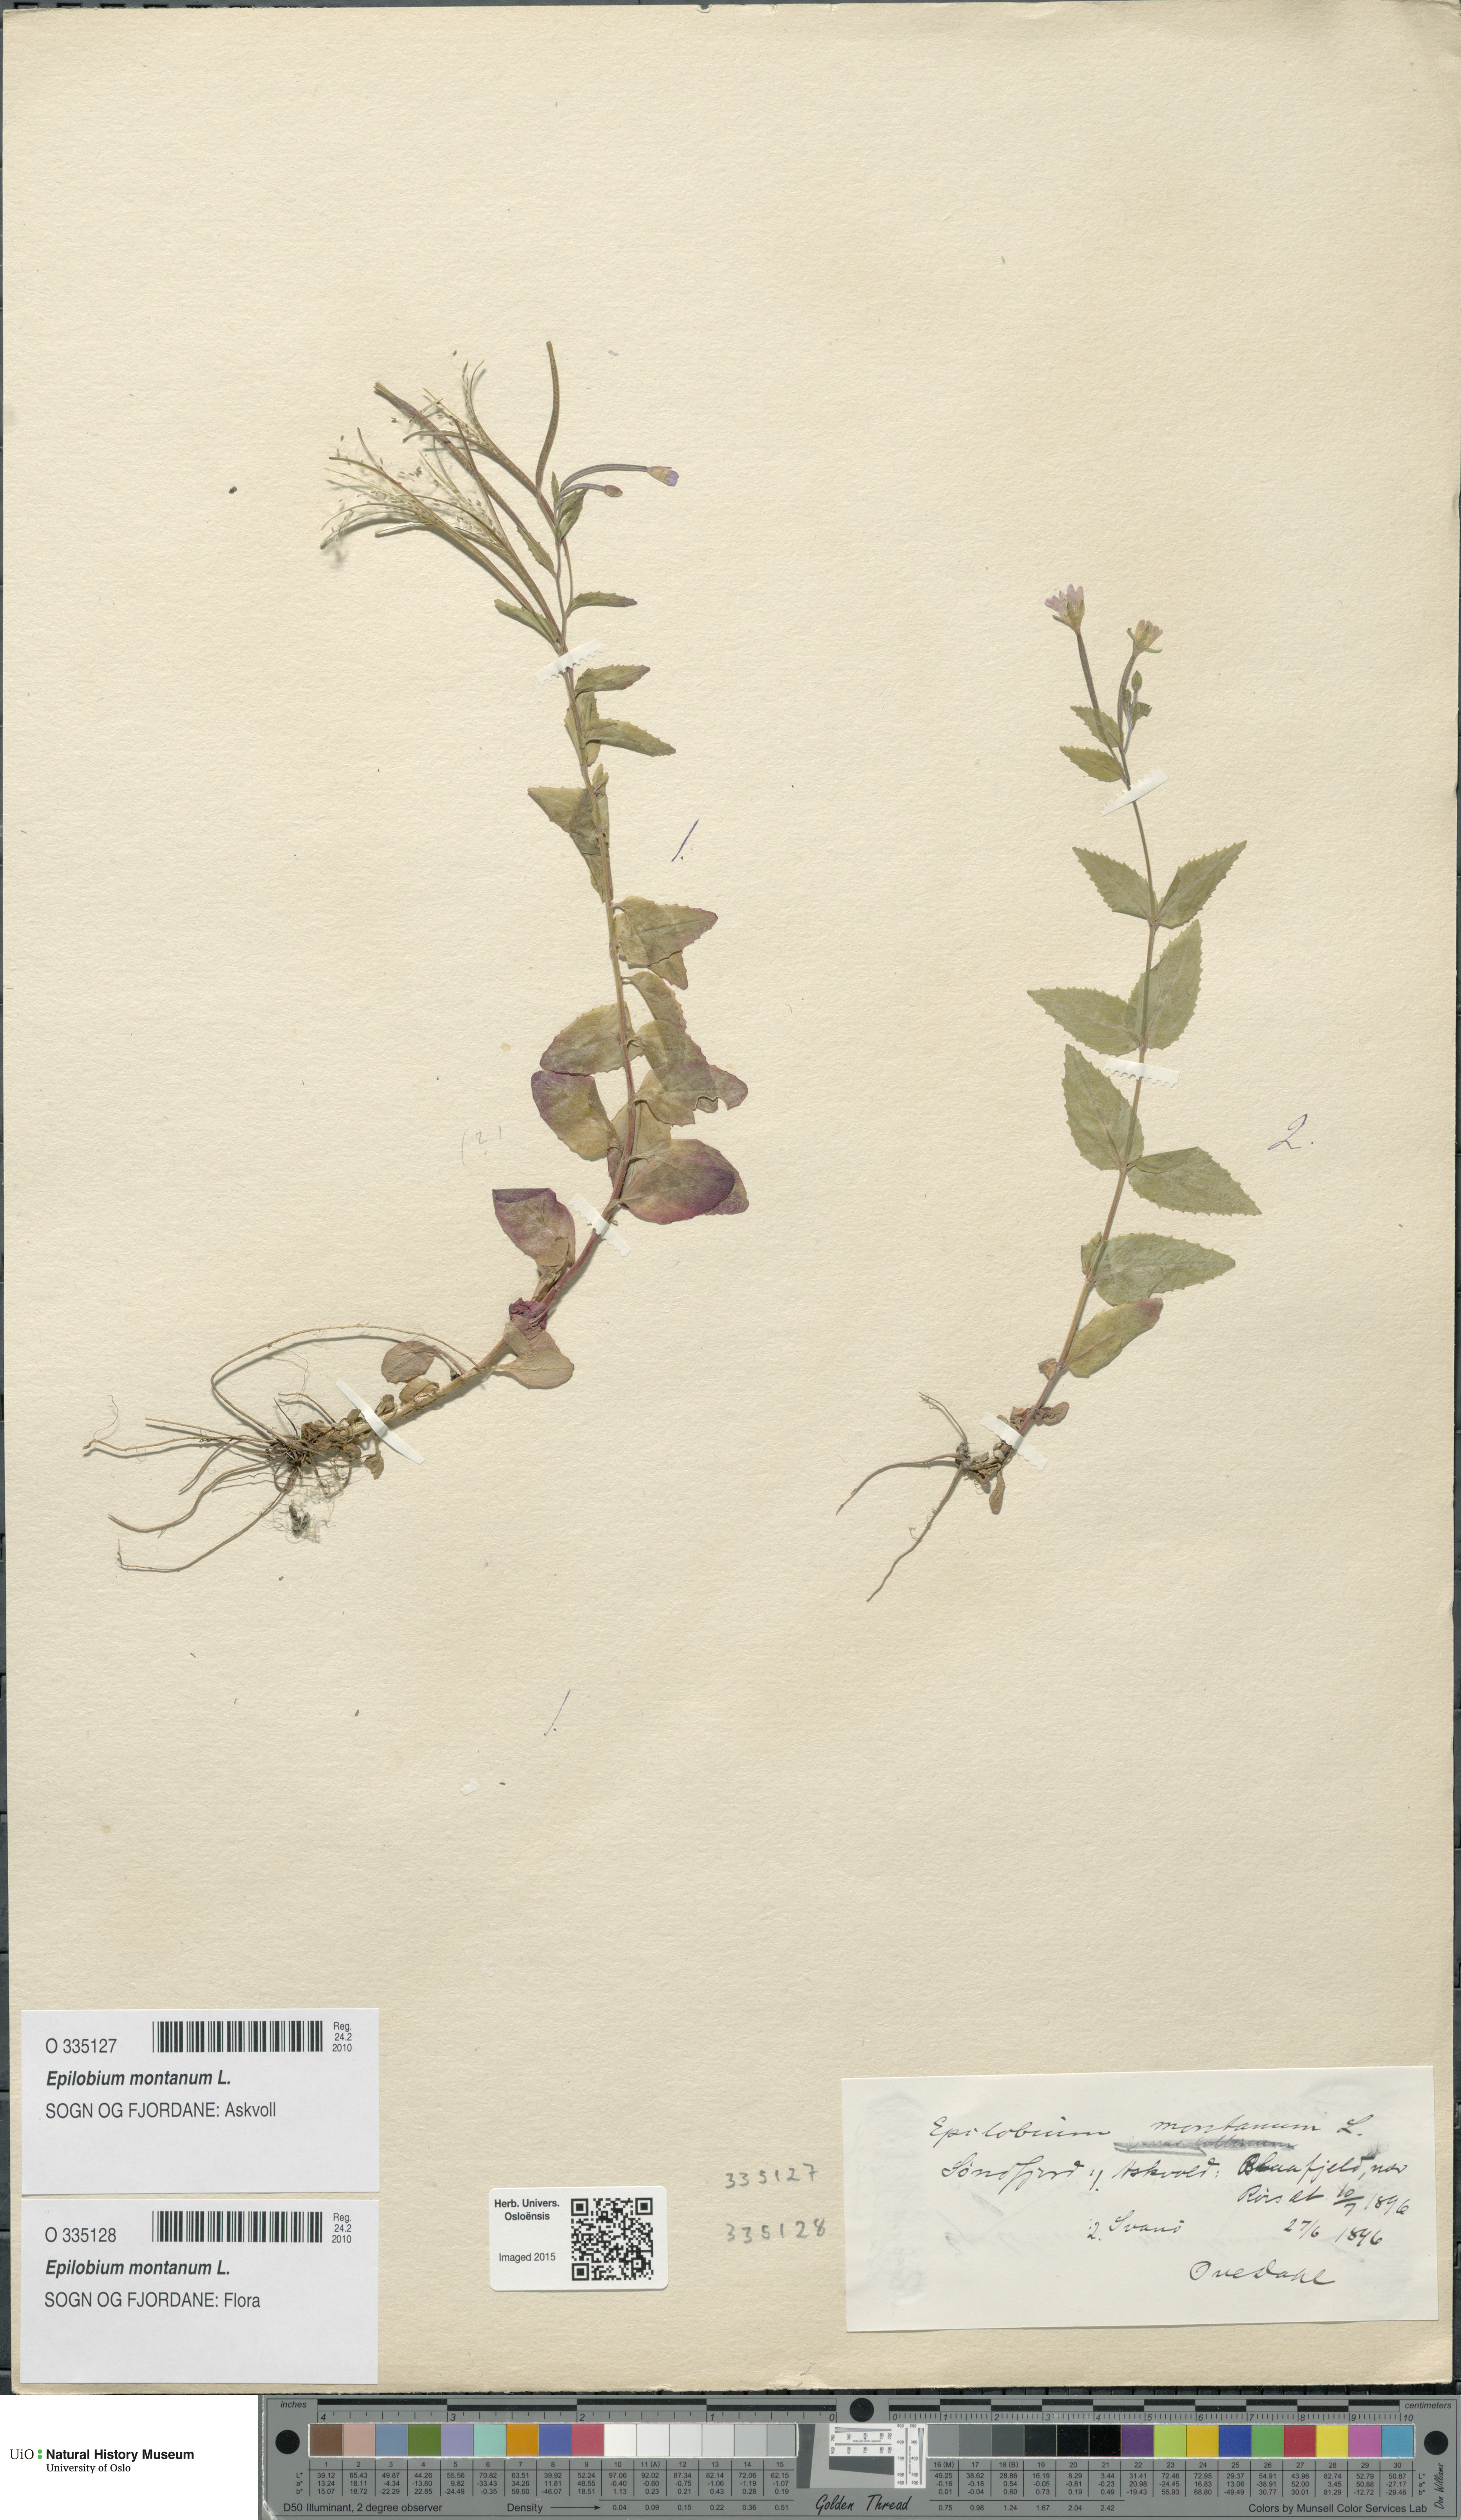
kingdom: Plantae
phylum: Tracheophyta
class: Magnoliopsida
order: Myrtales
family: Onagraceae
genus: Epilobium
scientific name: Epilobium montanum
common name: Broad-leaved willowherb
